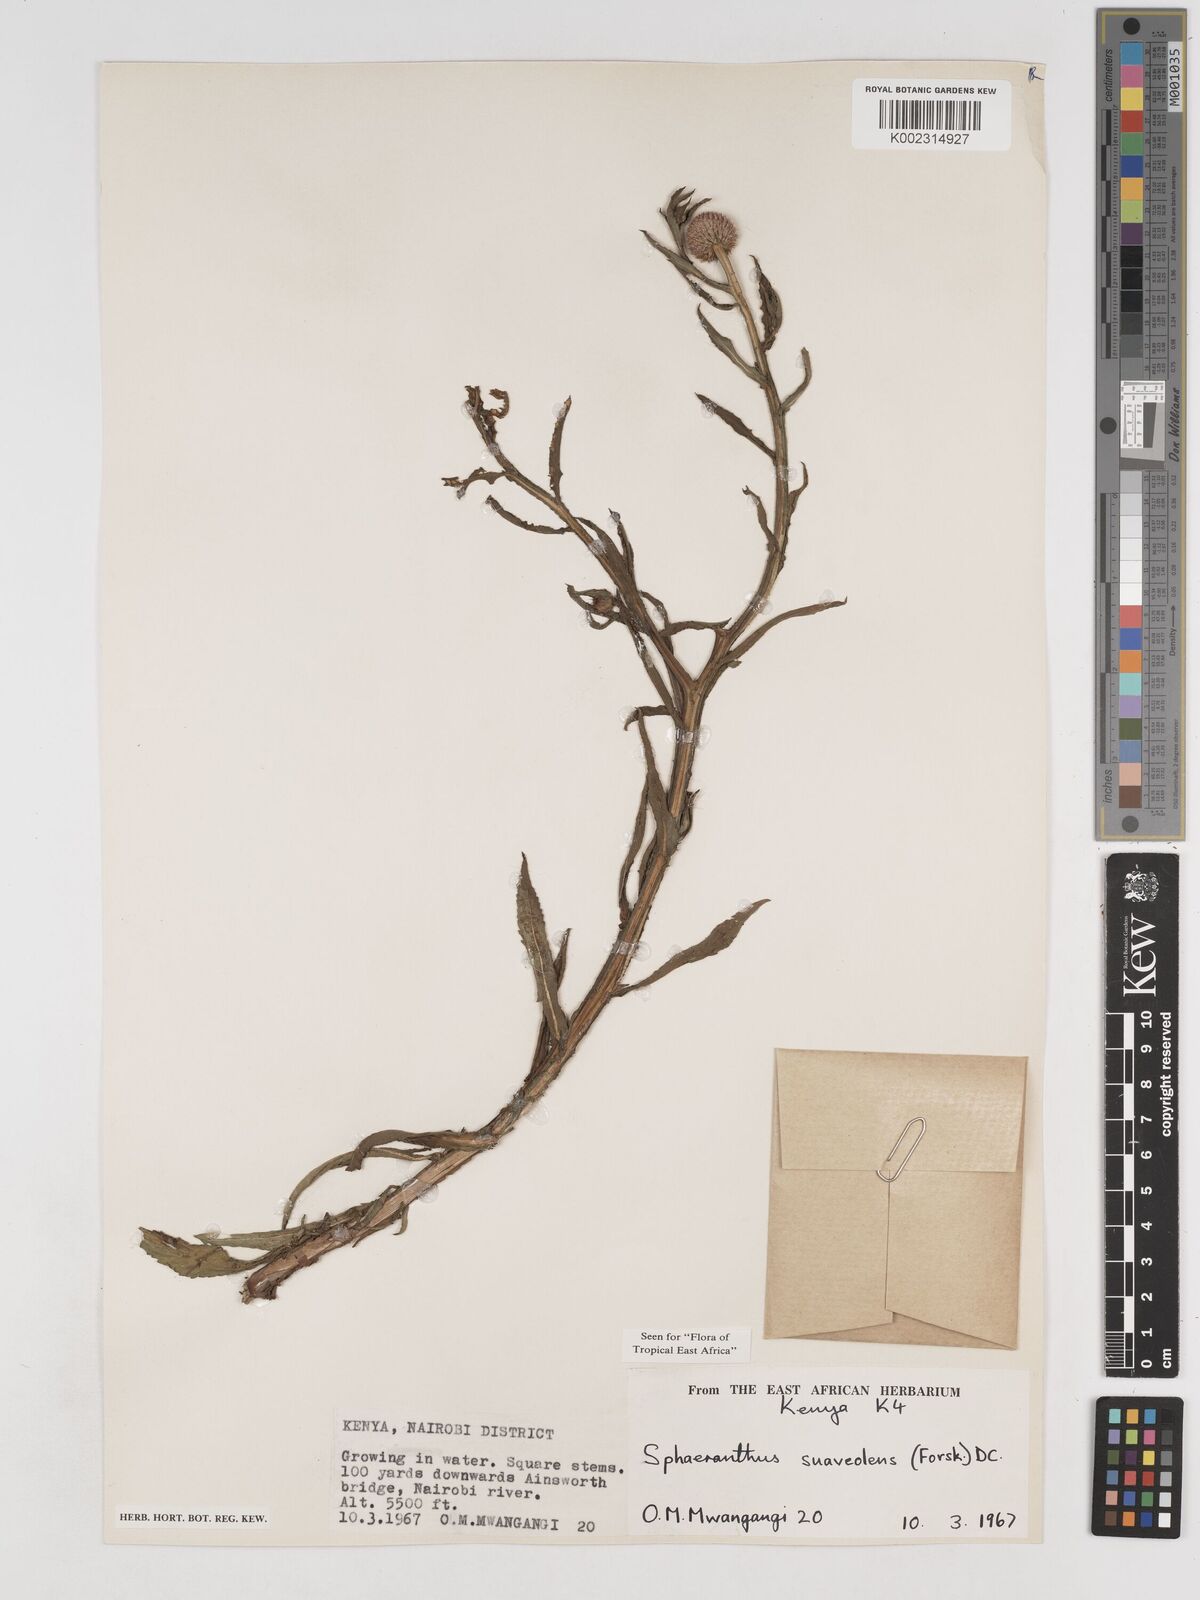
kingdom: Plantae
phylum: Tracheophyta
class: Magnoliopsida
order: Asterales
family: Asteraceae
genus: Sphaeranthus
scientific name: Sphaeranthus suaveolens
